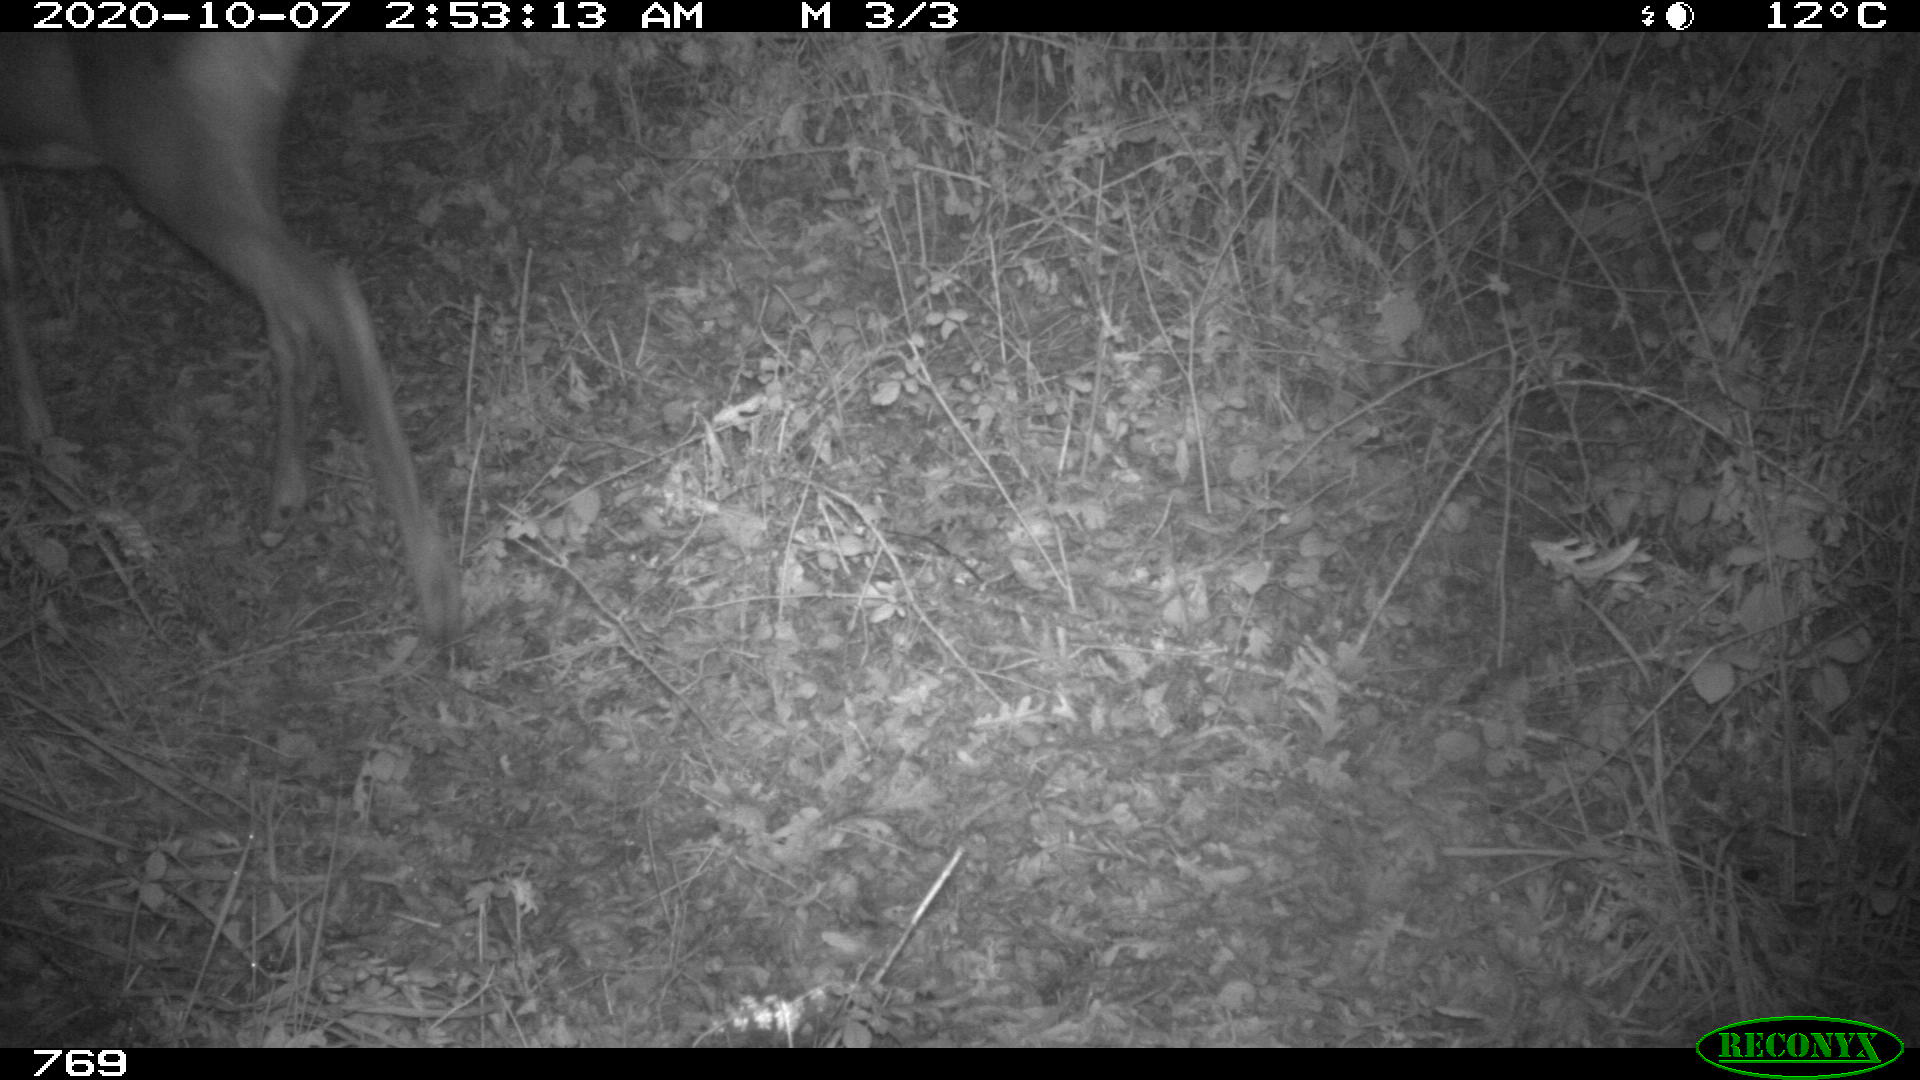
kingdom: Animalia
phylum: Chordata
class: Mammalia
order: Artiodactyla
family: Cervidae
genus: Capreolus
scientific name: Capreolus capreolus
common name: Western roe deer
